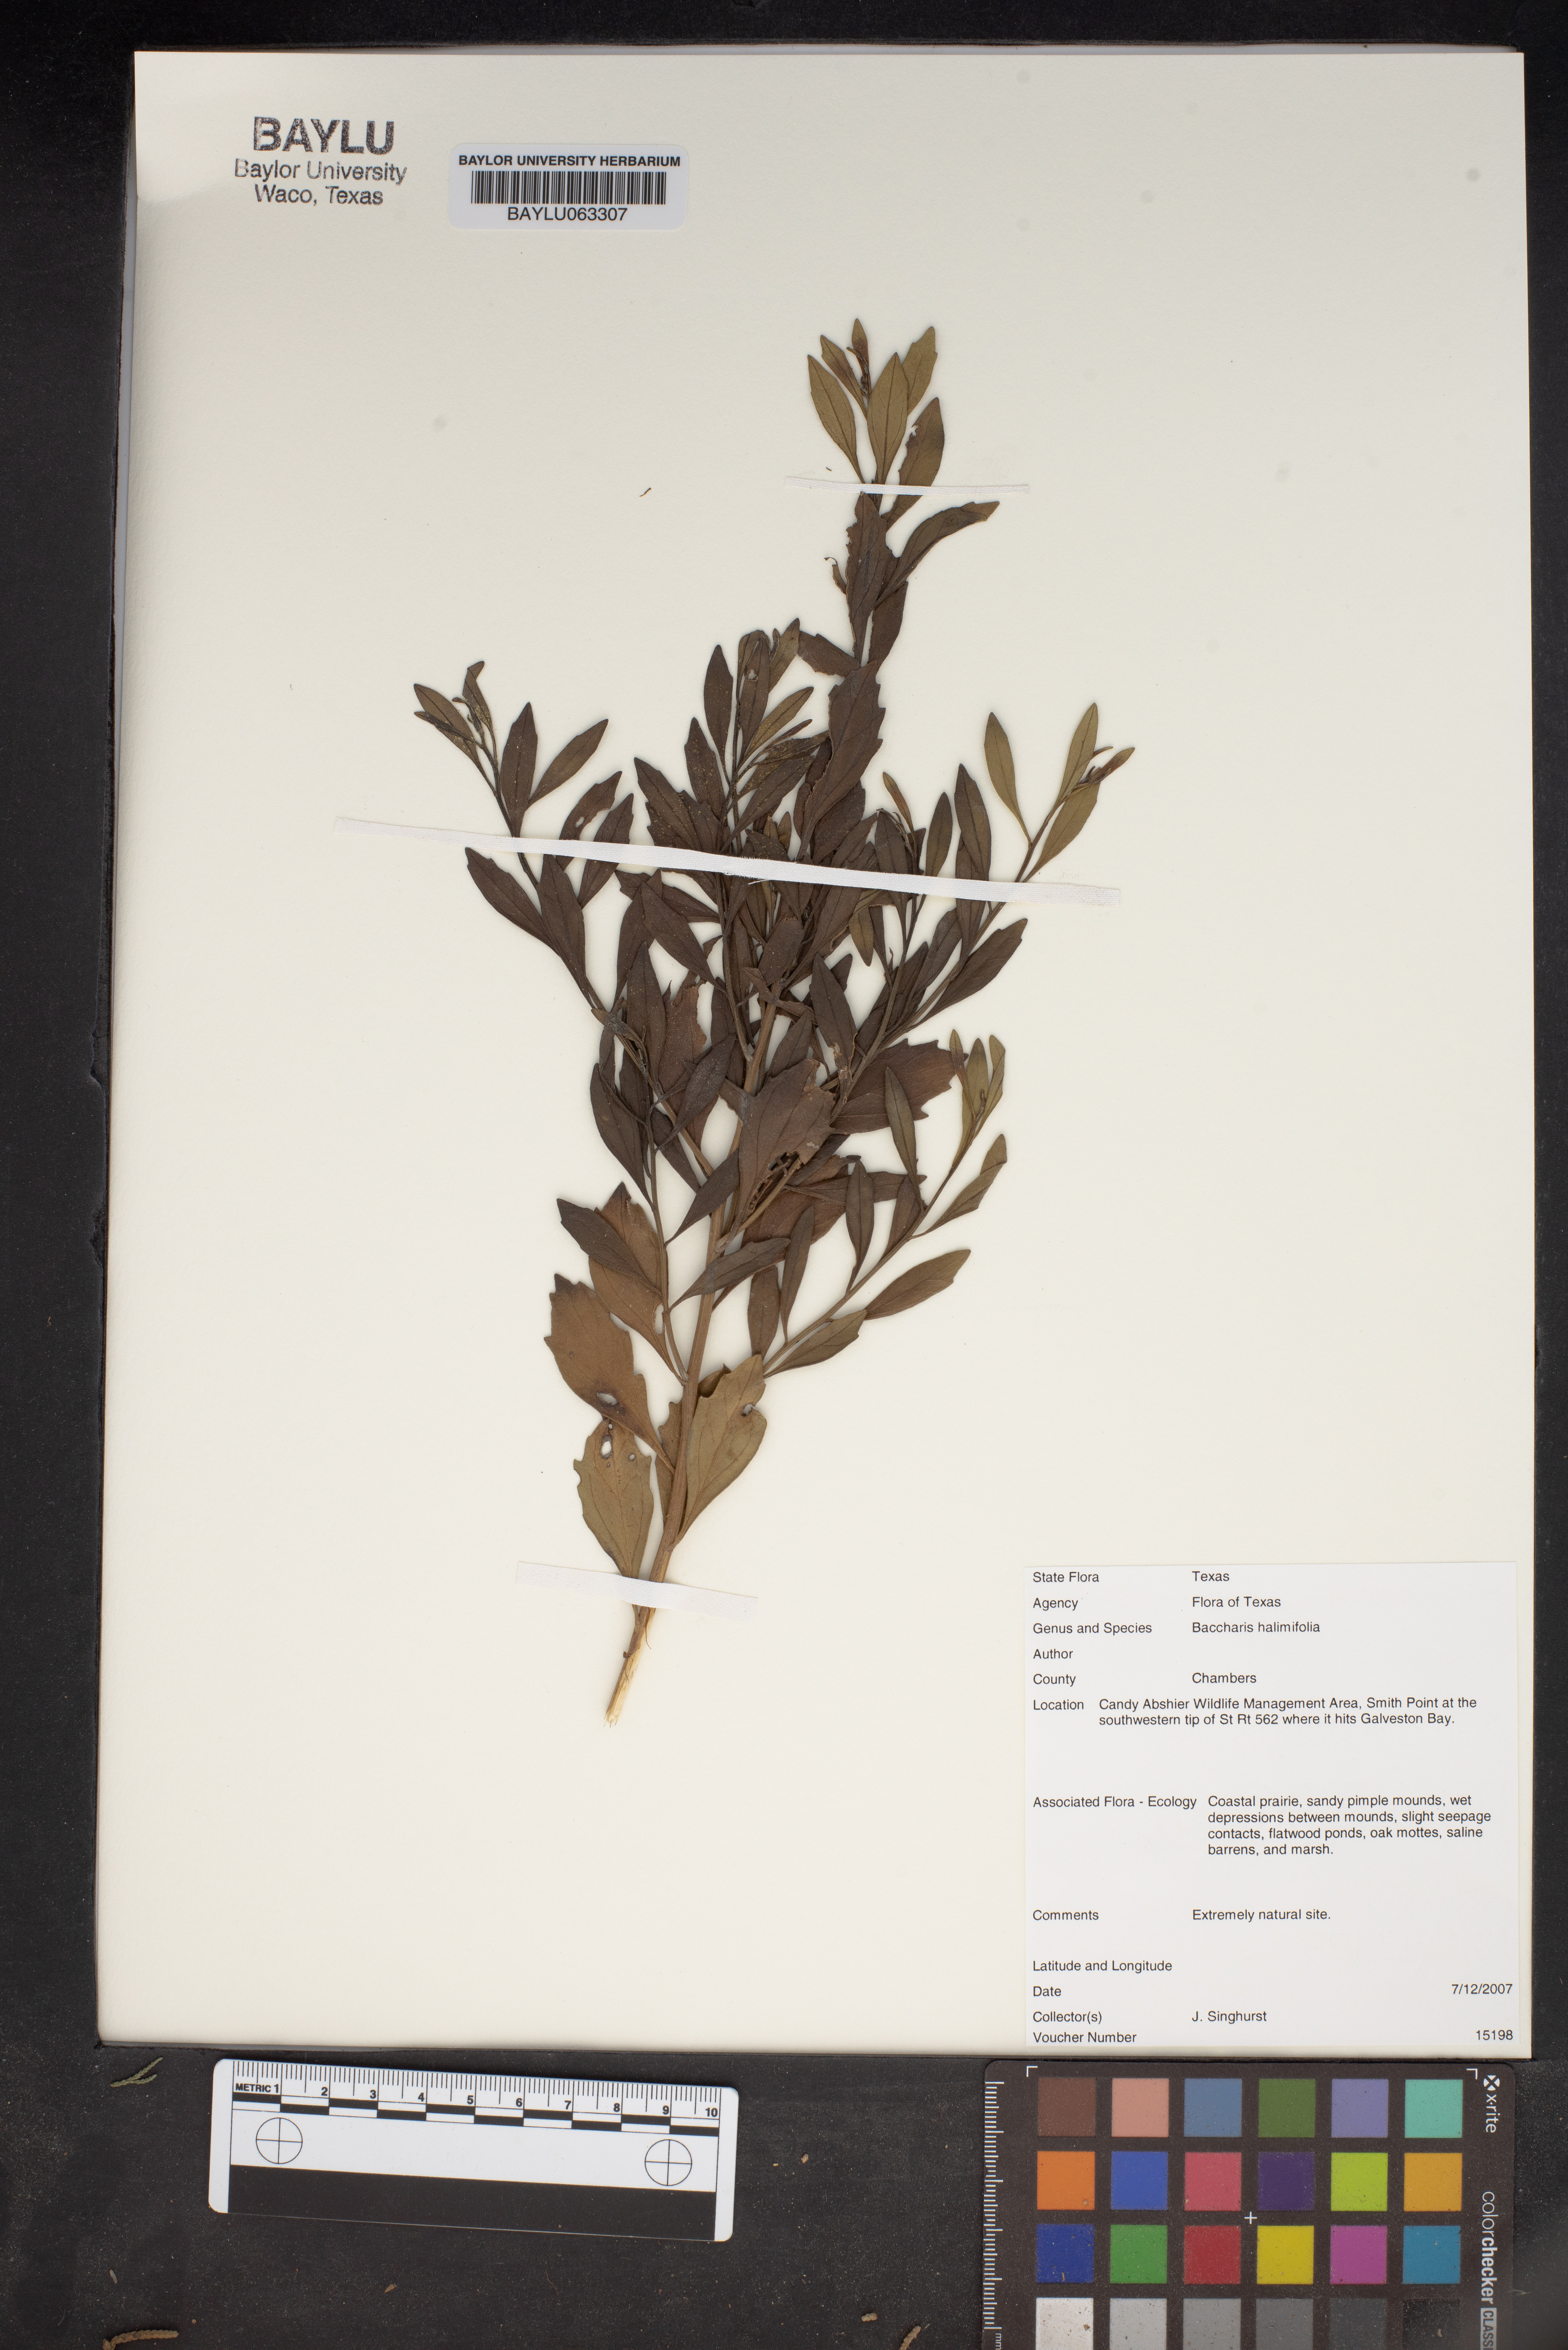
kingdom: Plantae
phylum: Tracheophyta
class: Magnoliopsida
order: Asterales
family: Asteraceae
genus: Nidorella
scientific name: Nidorella ivifolia
